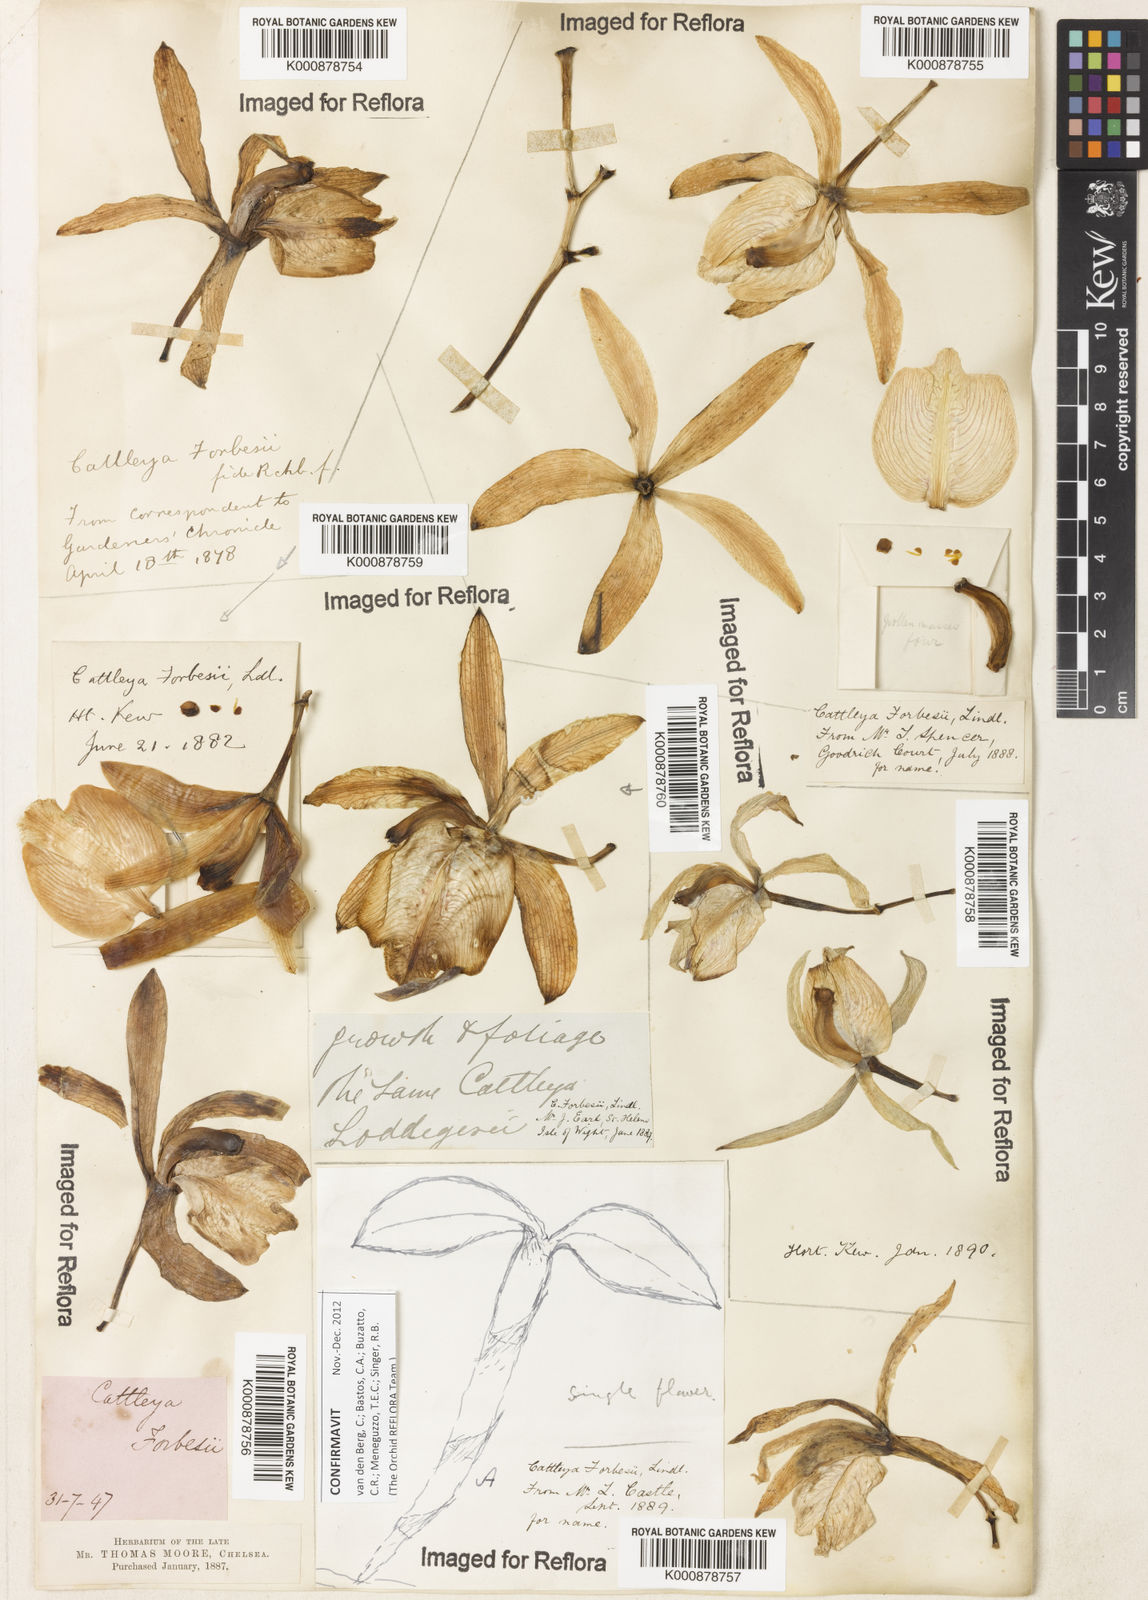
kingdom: Plantae
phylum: Tracheophyta
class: Liliopsida
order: Asparagales
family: Orchidaceae
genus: Cattleya
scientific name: Cattleya forbesii
